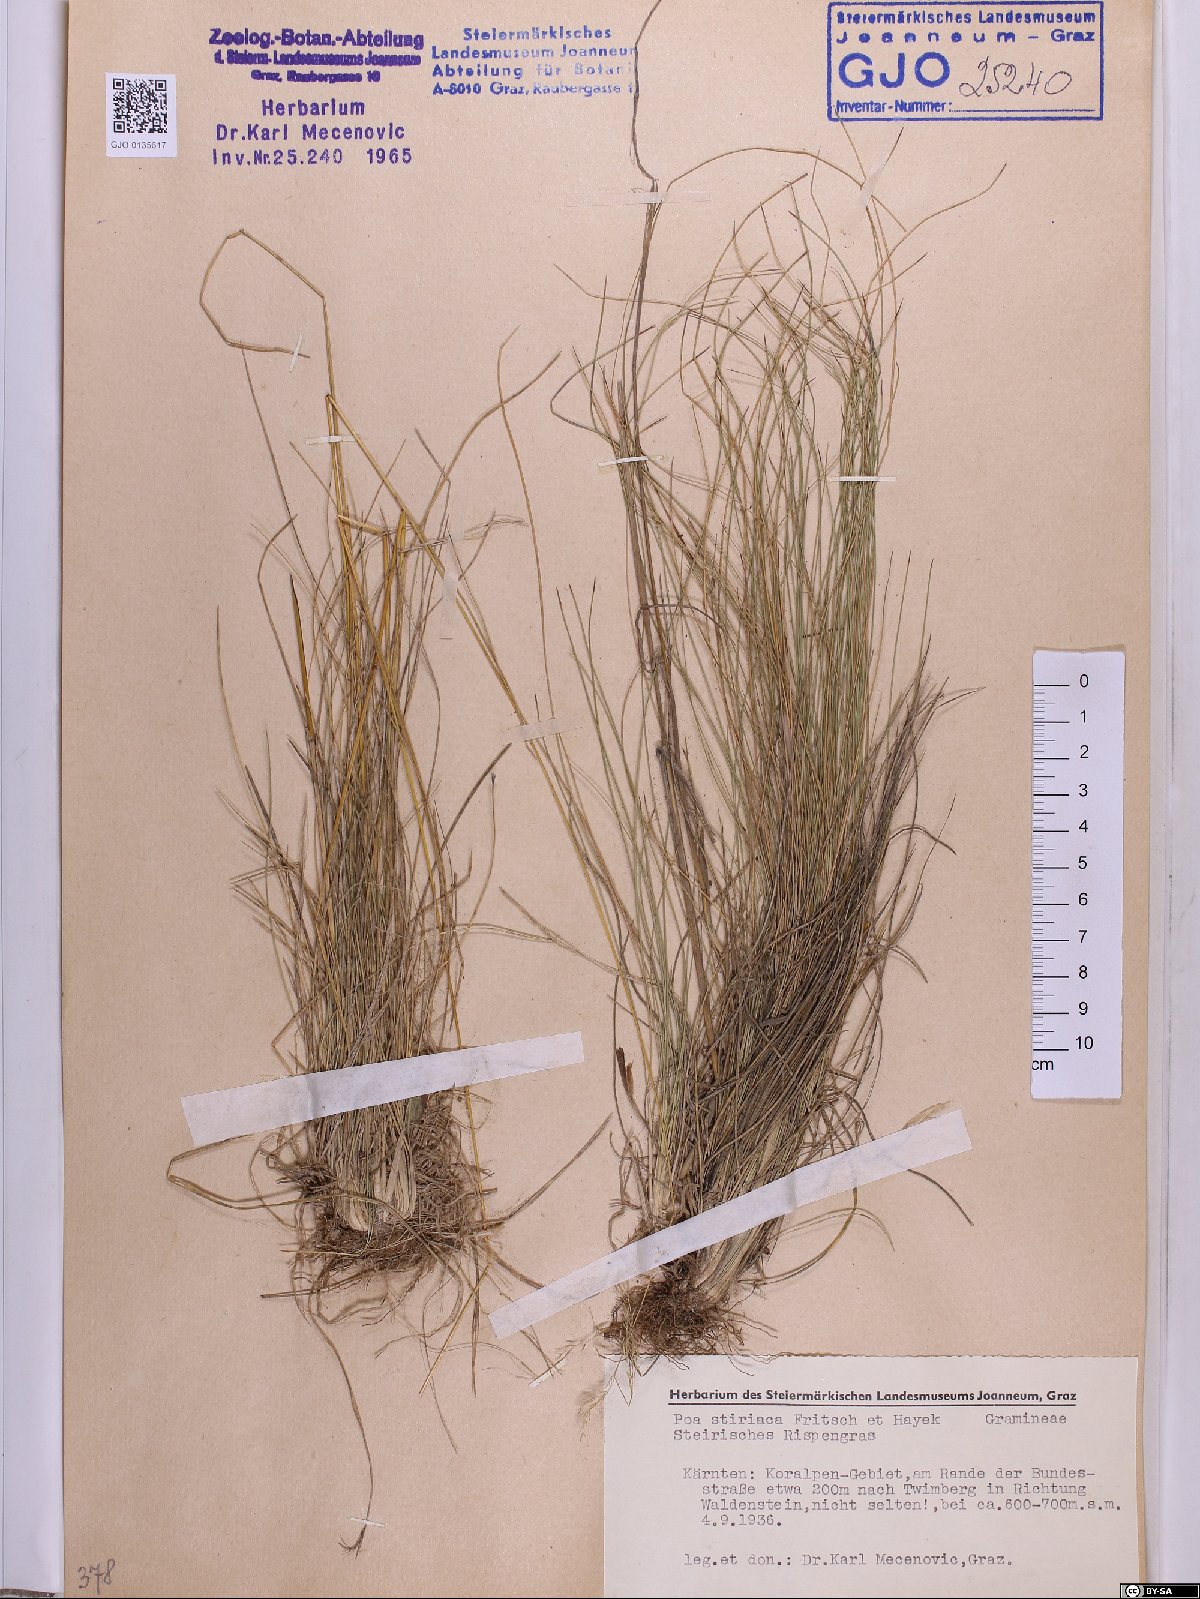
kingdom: Plantae
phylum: Tracheophyta
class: Liliopsida
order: Poales
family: Poaceae
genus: Poa
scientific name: Poa stiriaca
